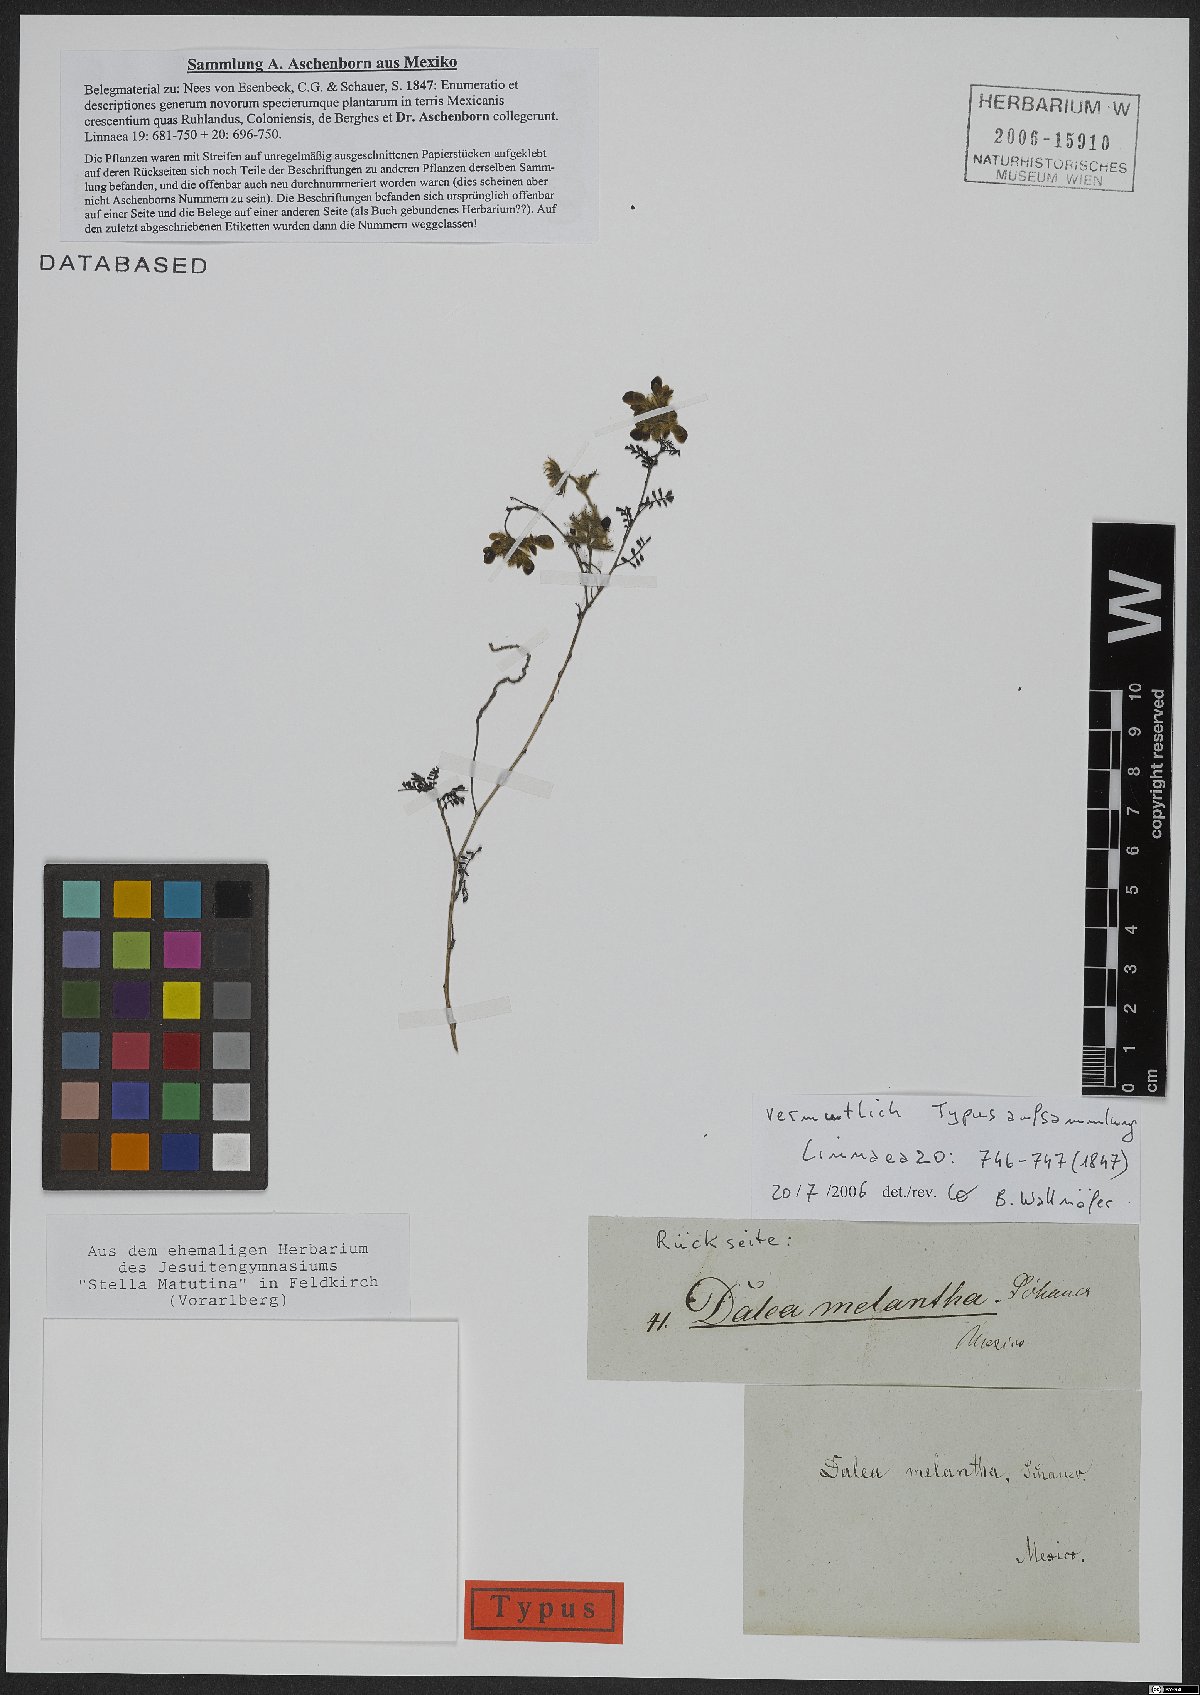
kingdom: Plantae
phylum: Tracheophyta
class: Magnoliopsida
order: Fabales
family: Fabaceae
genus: Dalea
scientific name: Dalea melantha
